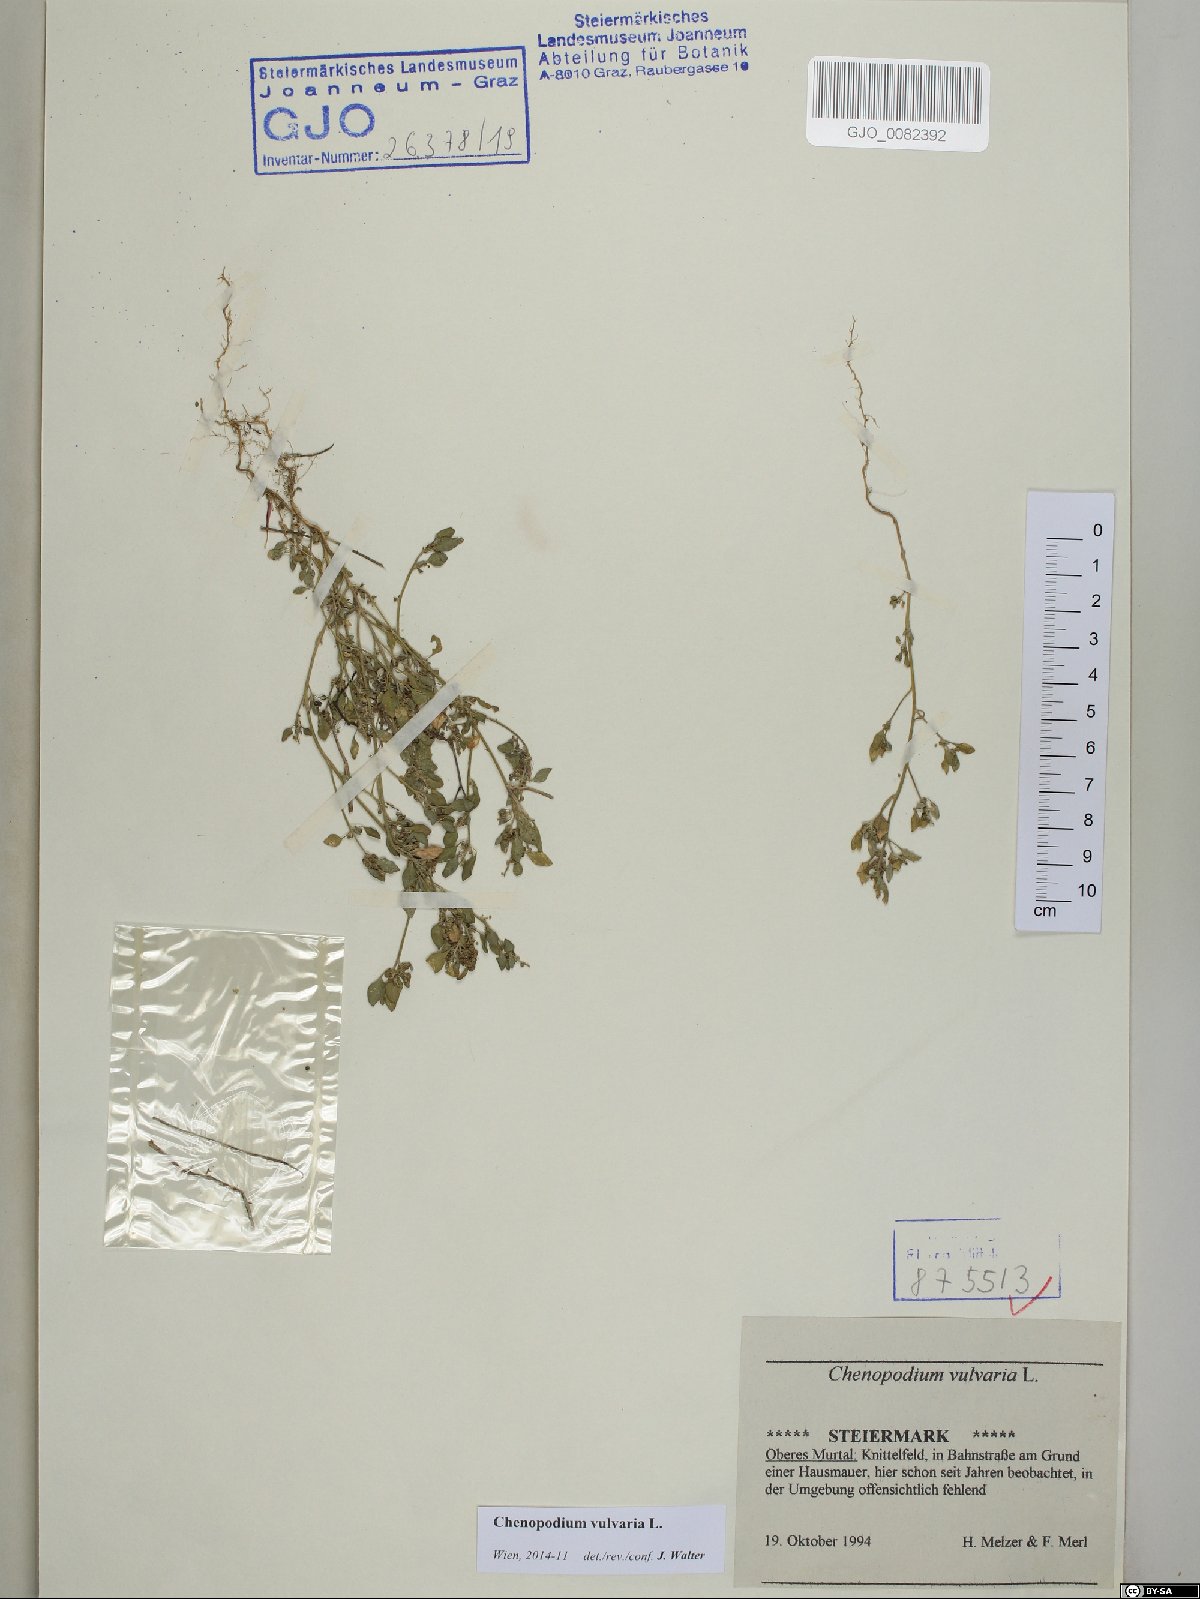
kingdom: Plantae
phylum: Tracheophyta
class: Magnoliopsida
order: Caryophyllales
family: Amaranthaceae
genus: Chenopodium
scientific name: Chenopodium vulvaria
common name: Stinking goosefoot
